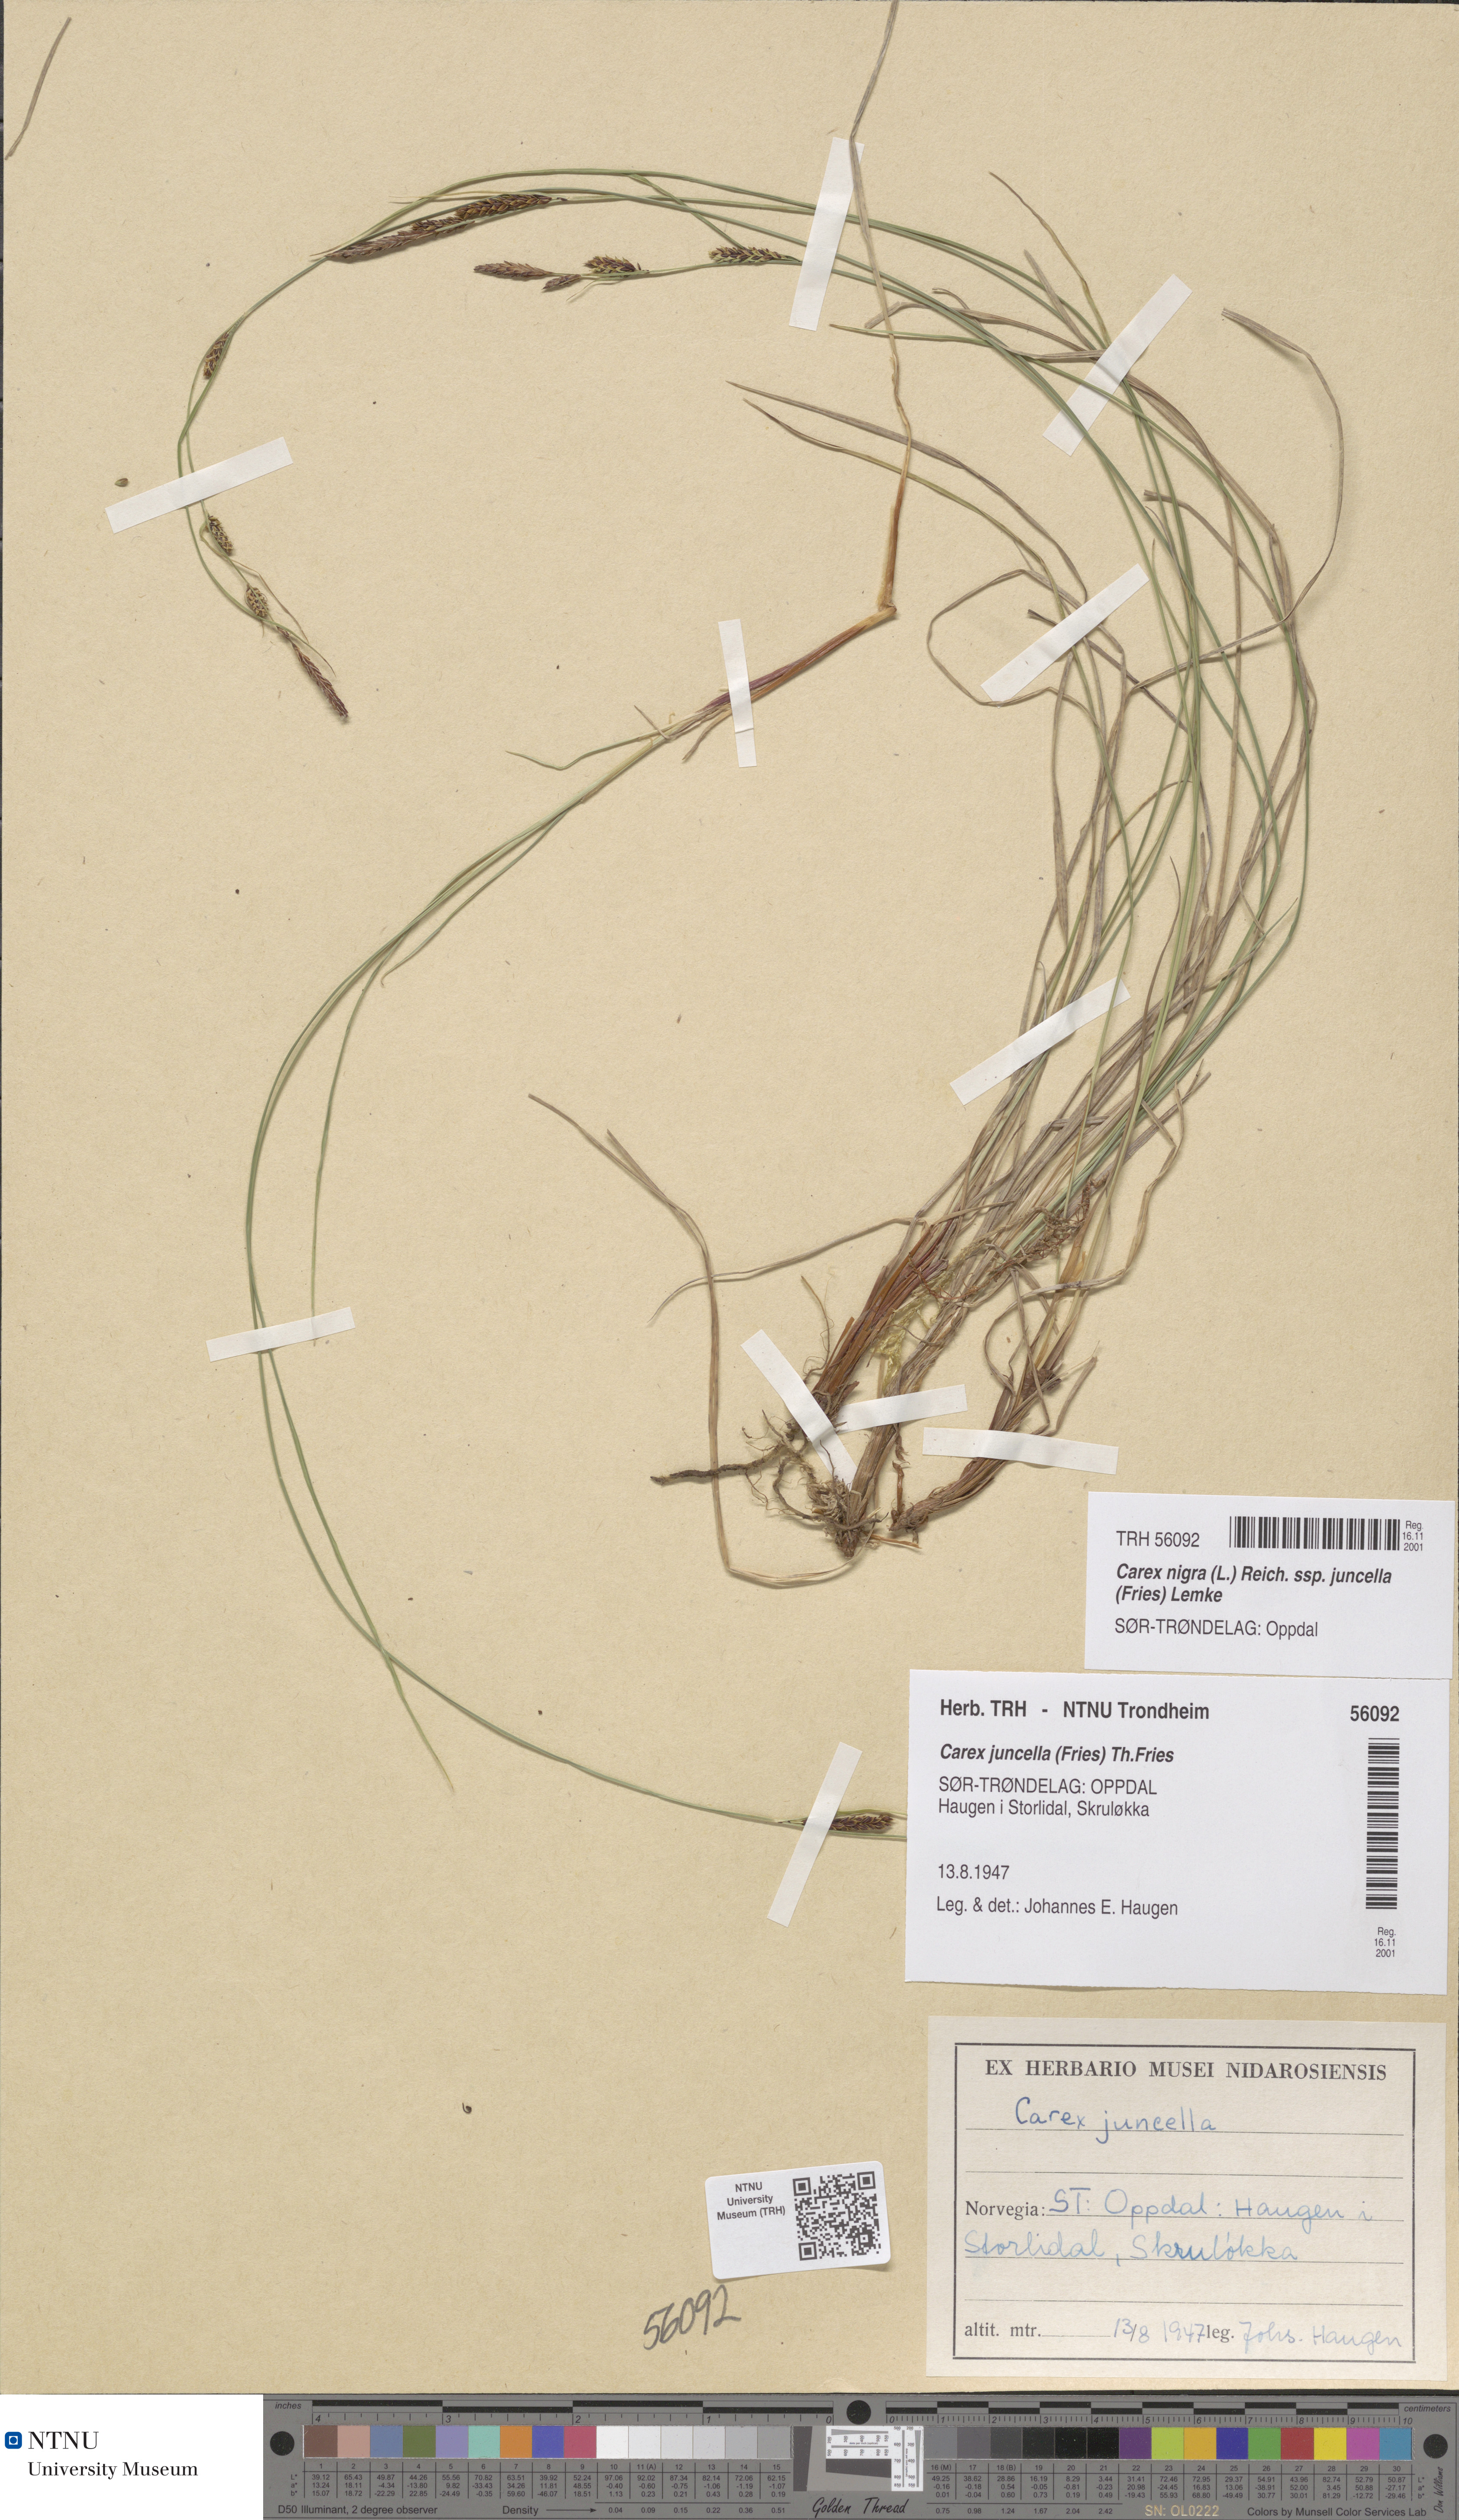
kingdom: Plantae
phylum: Tracheophyta
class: Liliopsida
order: Poales
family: Cyperaceae
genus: Carex
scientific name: Carex nigra
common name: Common sedge
